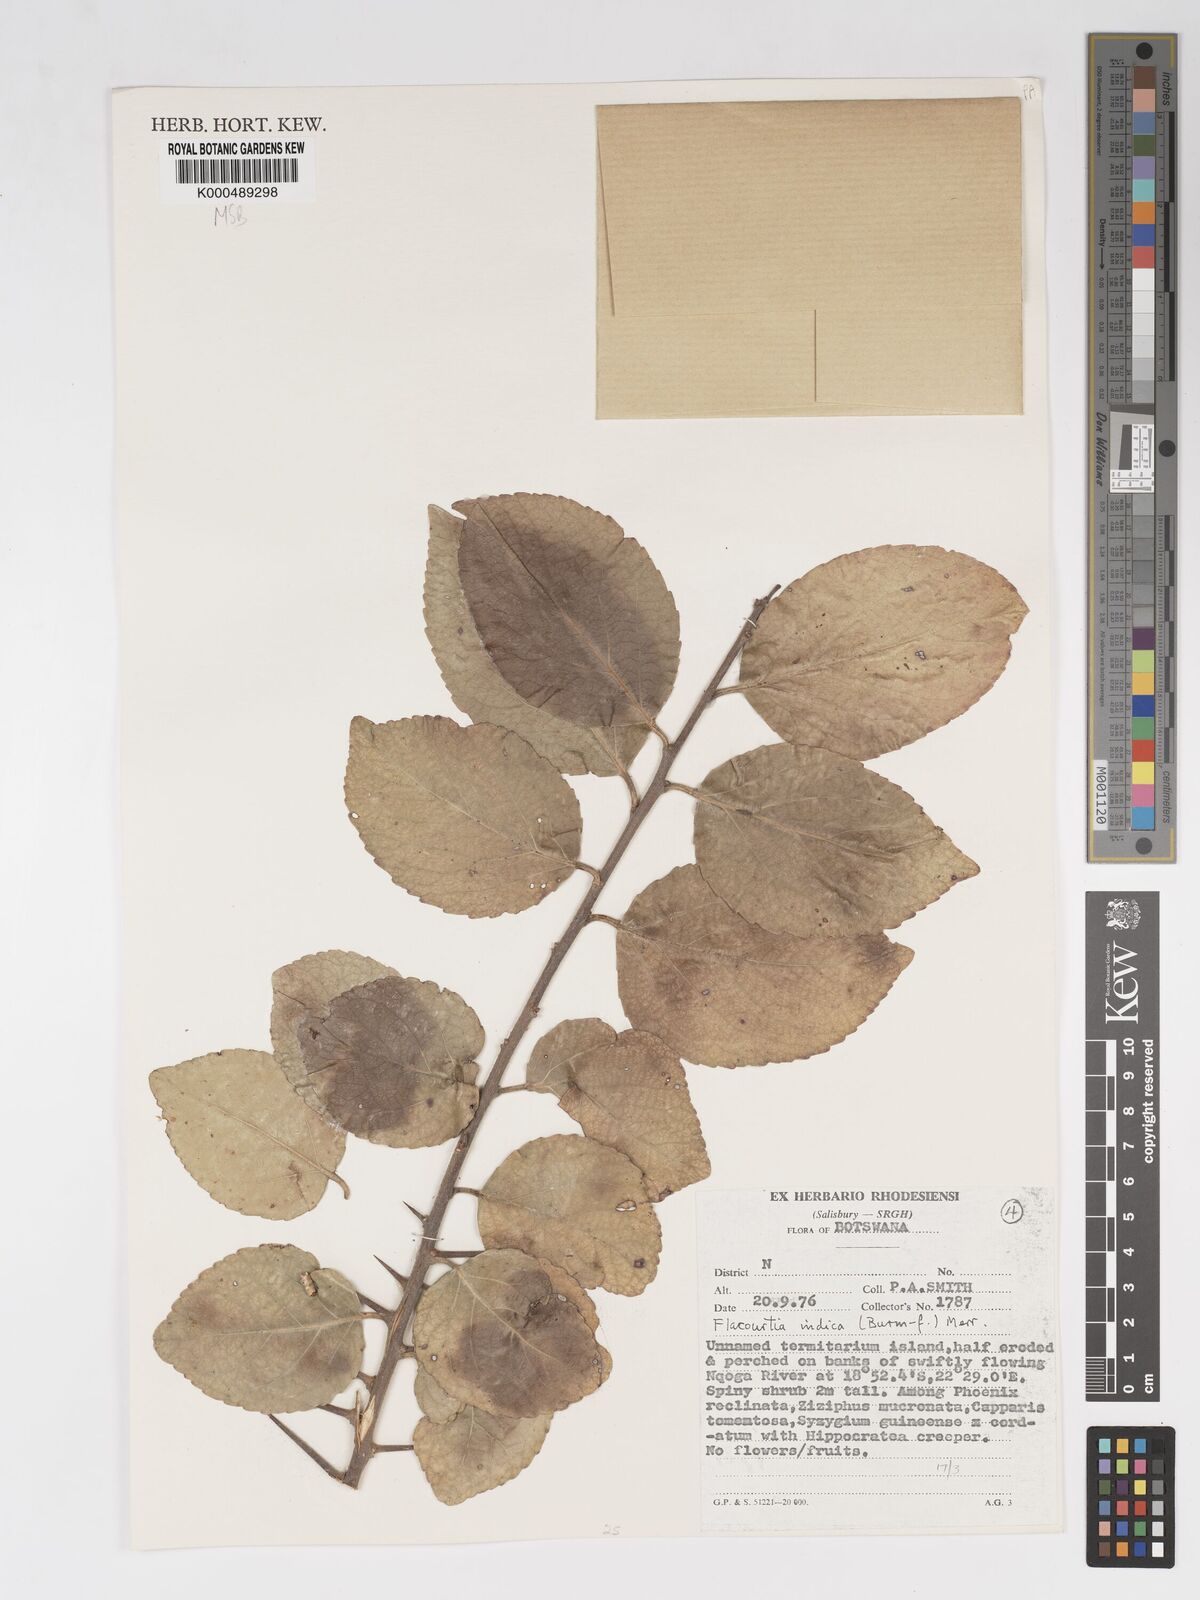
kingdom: Plantae
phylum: Tracheophyta
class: Magnoliopsida
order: Malpighiales
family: Salicaceae
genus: Flacourtia
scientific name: Flacourtia indica
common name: Governor's plum
